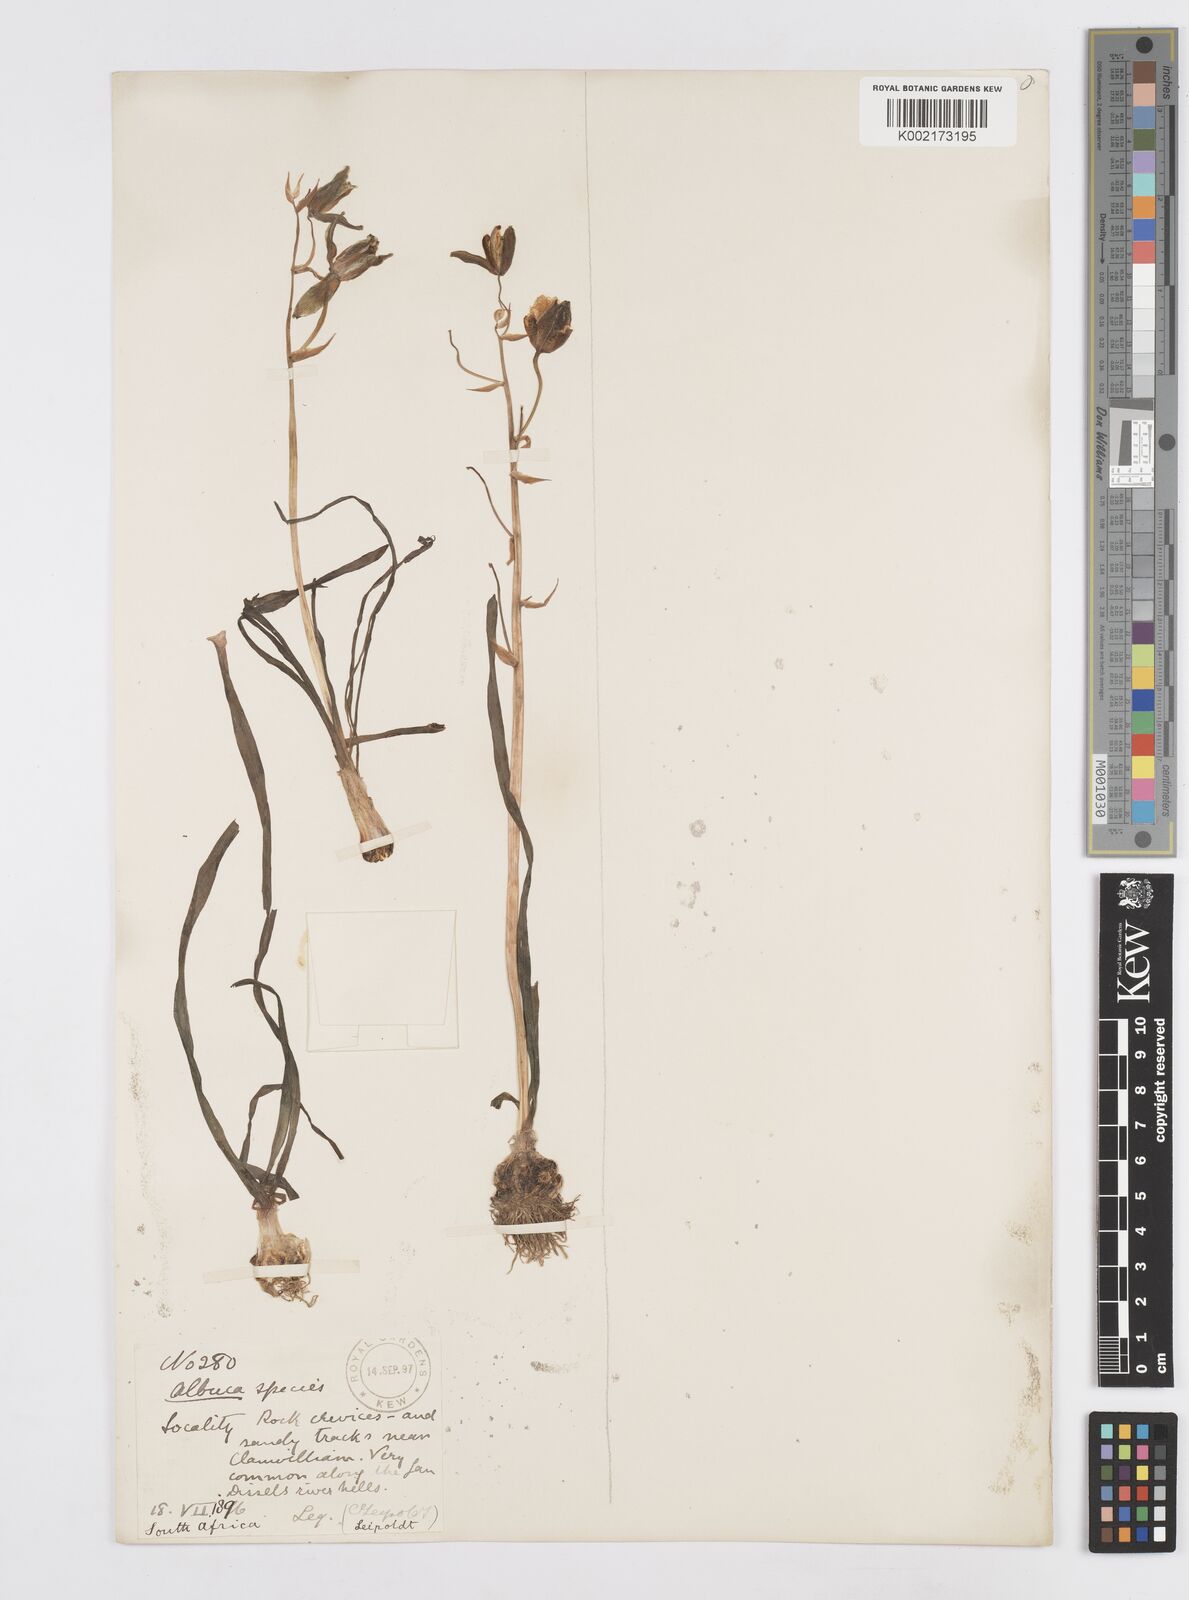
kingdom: Plantae
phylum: Tracheophyta
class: Liliopsida
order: Asparagales
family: Asparagaceae
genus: Albuca
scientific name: Albuca
